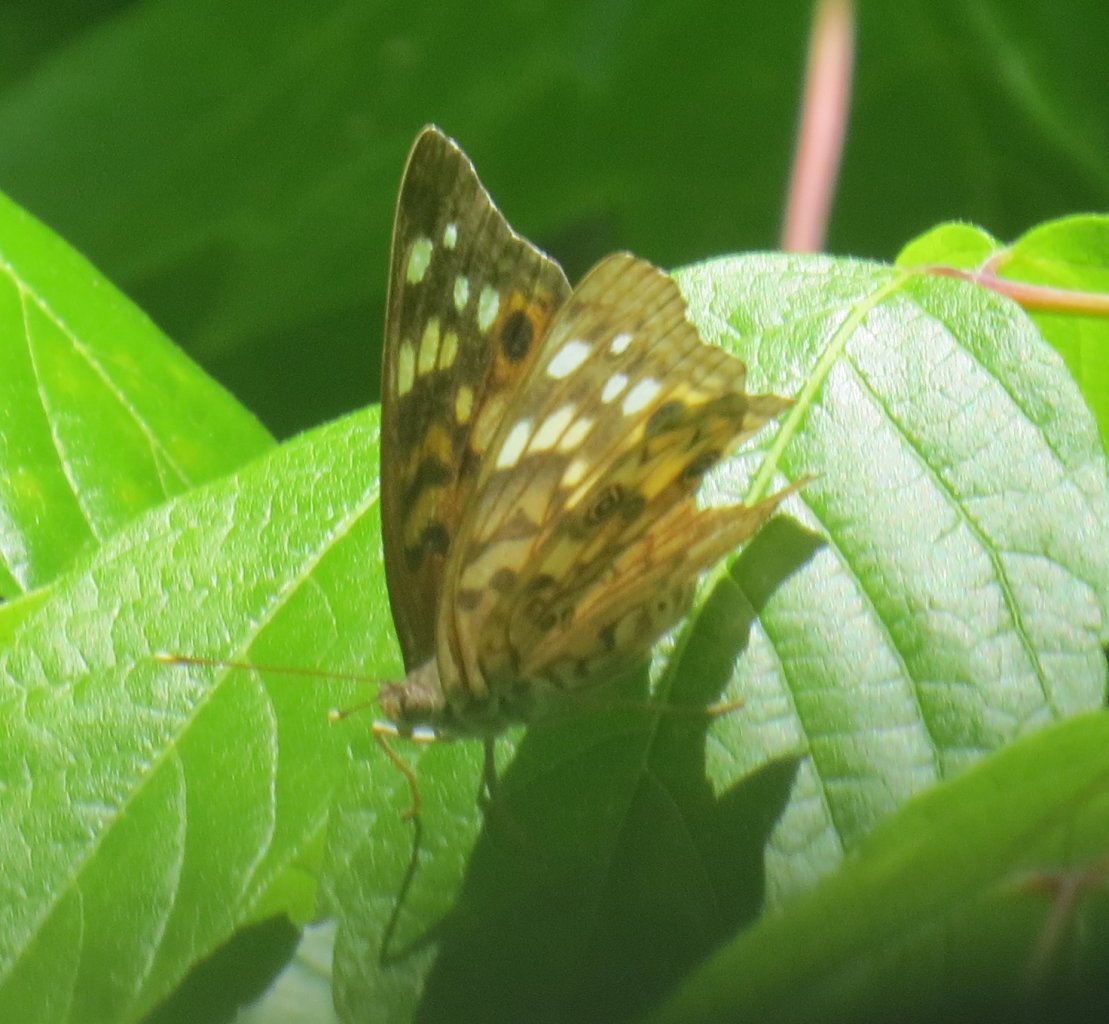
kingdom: Animalia
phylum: Arthropoda
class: Insecta
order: Lepidoptera
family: Nymphalidae
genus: Asterocampa
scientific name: Asterocampa celtis
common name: Hackberry Emperor
